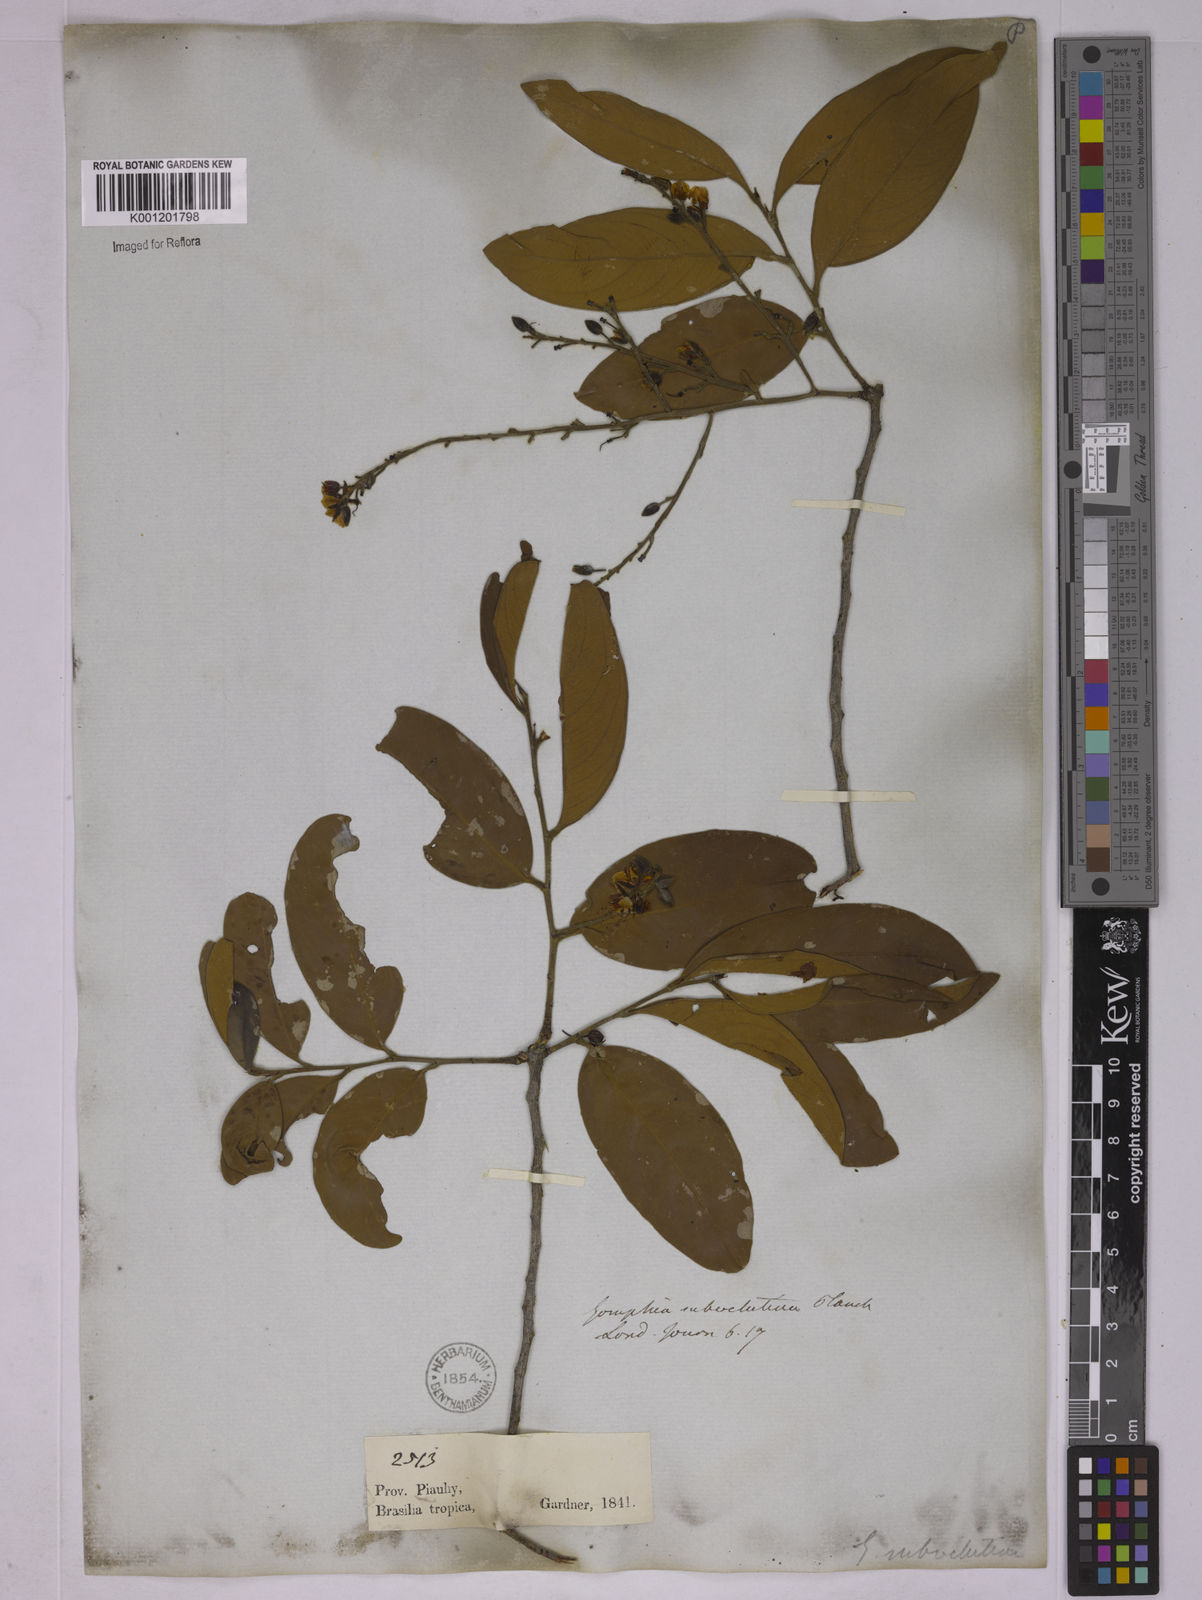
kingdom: Plantae
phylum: Tracheophyta
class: Magnoliopsida
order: Malpighiales
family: Ochnaceae
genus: Ouratea
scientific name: Ouratea oleifolia
